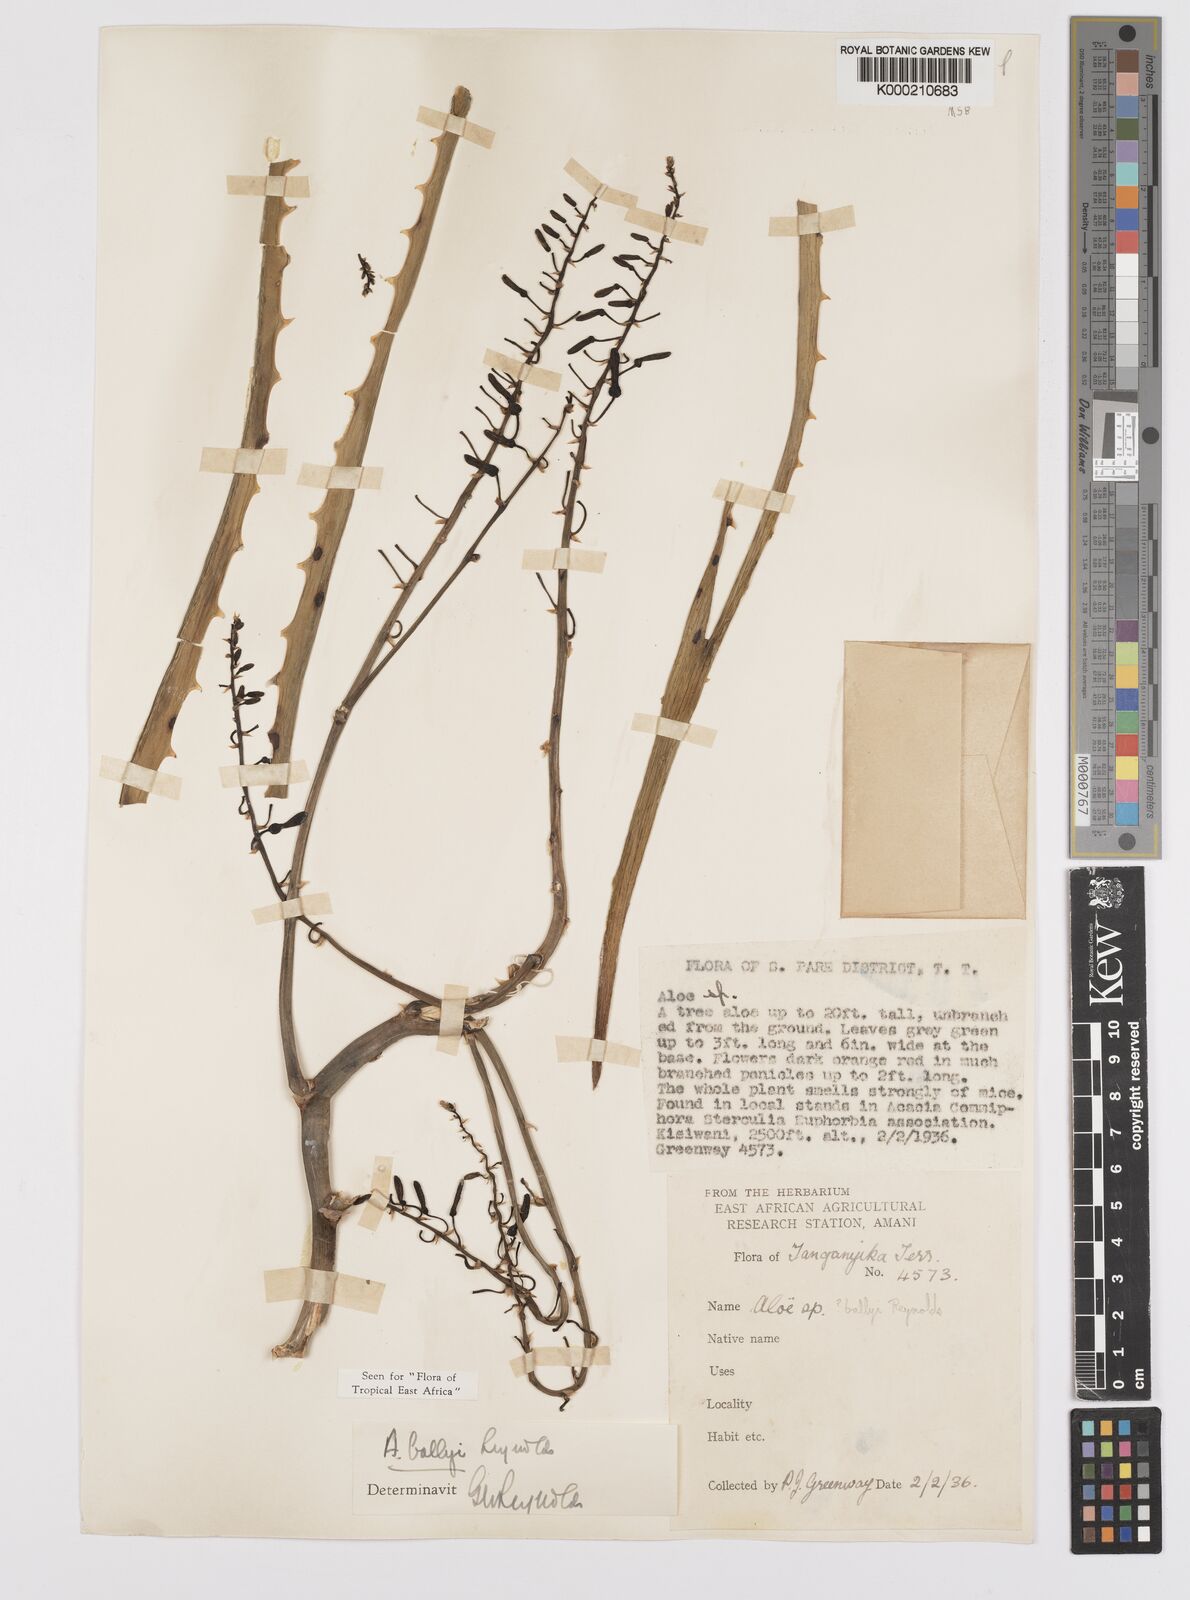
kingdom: Plantae
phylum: Tracheophyta
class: Liliopsida
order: Asparagales
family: Asphodelaceae
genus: Aloe
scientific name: Aloe ballyi
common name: Rat aloe
